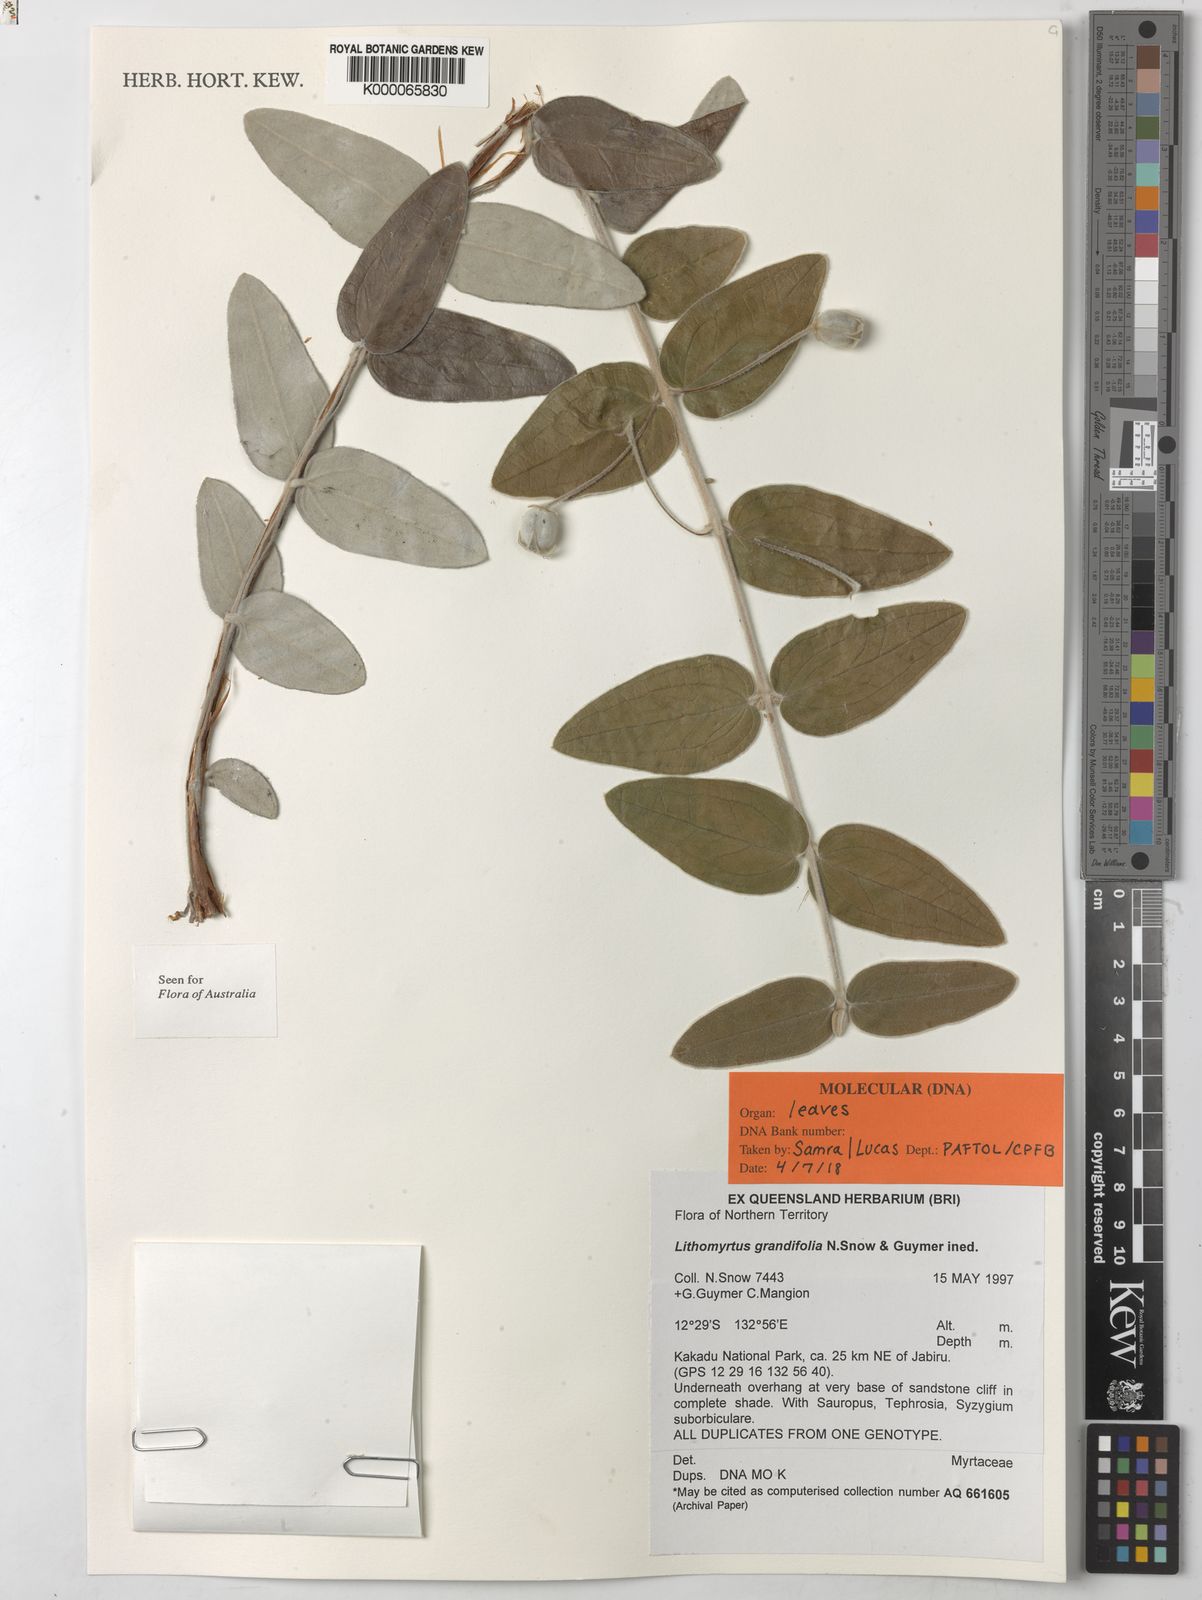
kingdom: Plantae
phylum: Tracheophyta
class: Magnoliopsida
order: Myrtales
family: Myrtaceae
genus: Lithomyrtus
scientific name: Lithomyrtus grandifolia
